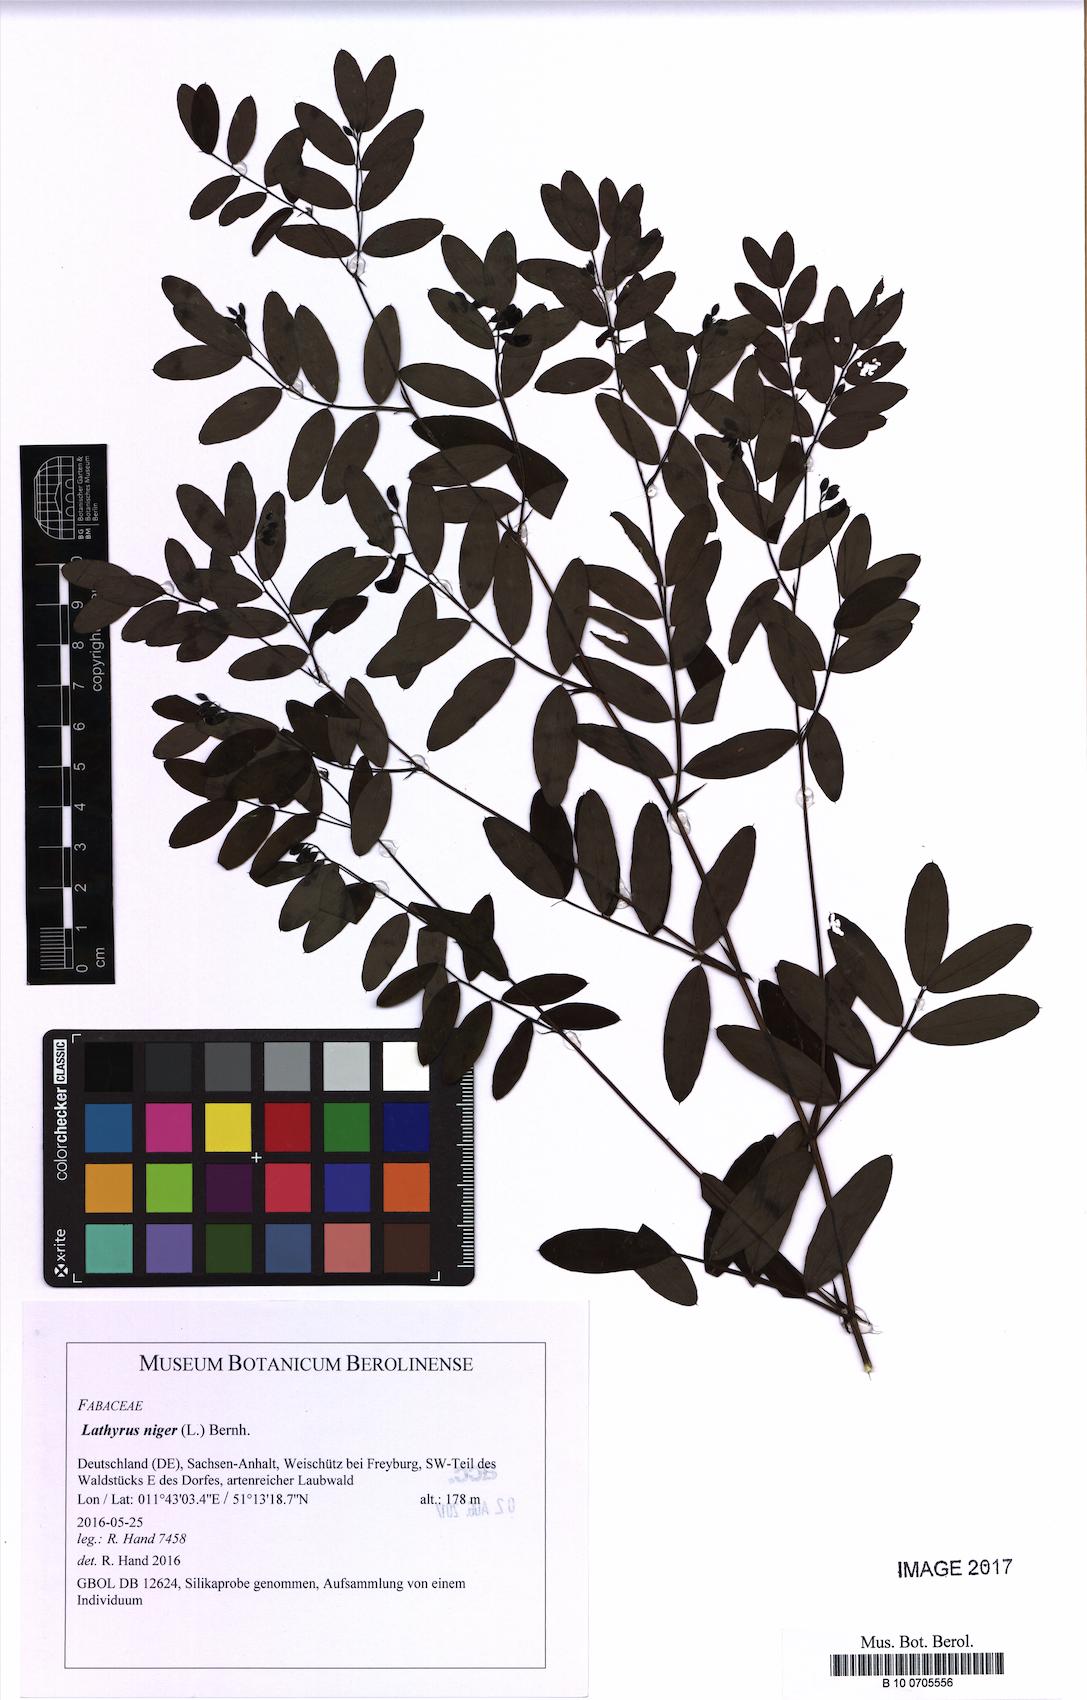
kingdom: Plantae
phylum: Tracheophyta
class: Magnoliopsida
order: Fabales
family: Fabaceae
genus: Lathyrus
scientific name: Lathyrus niger
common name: Black pea
